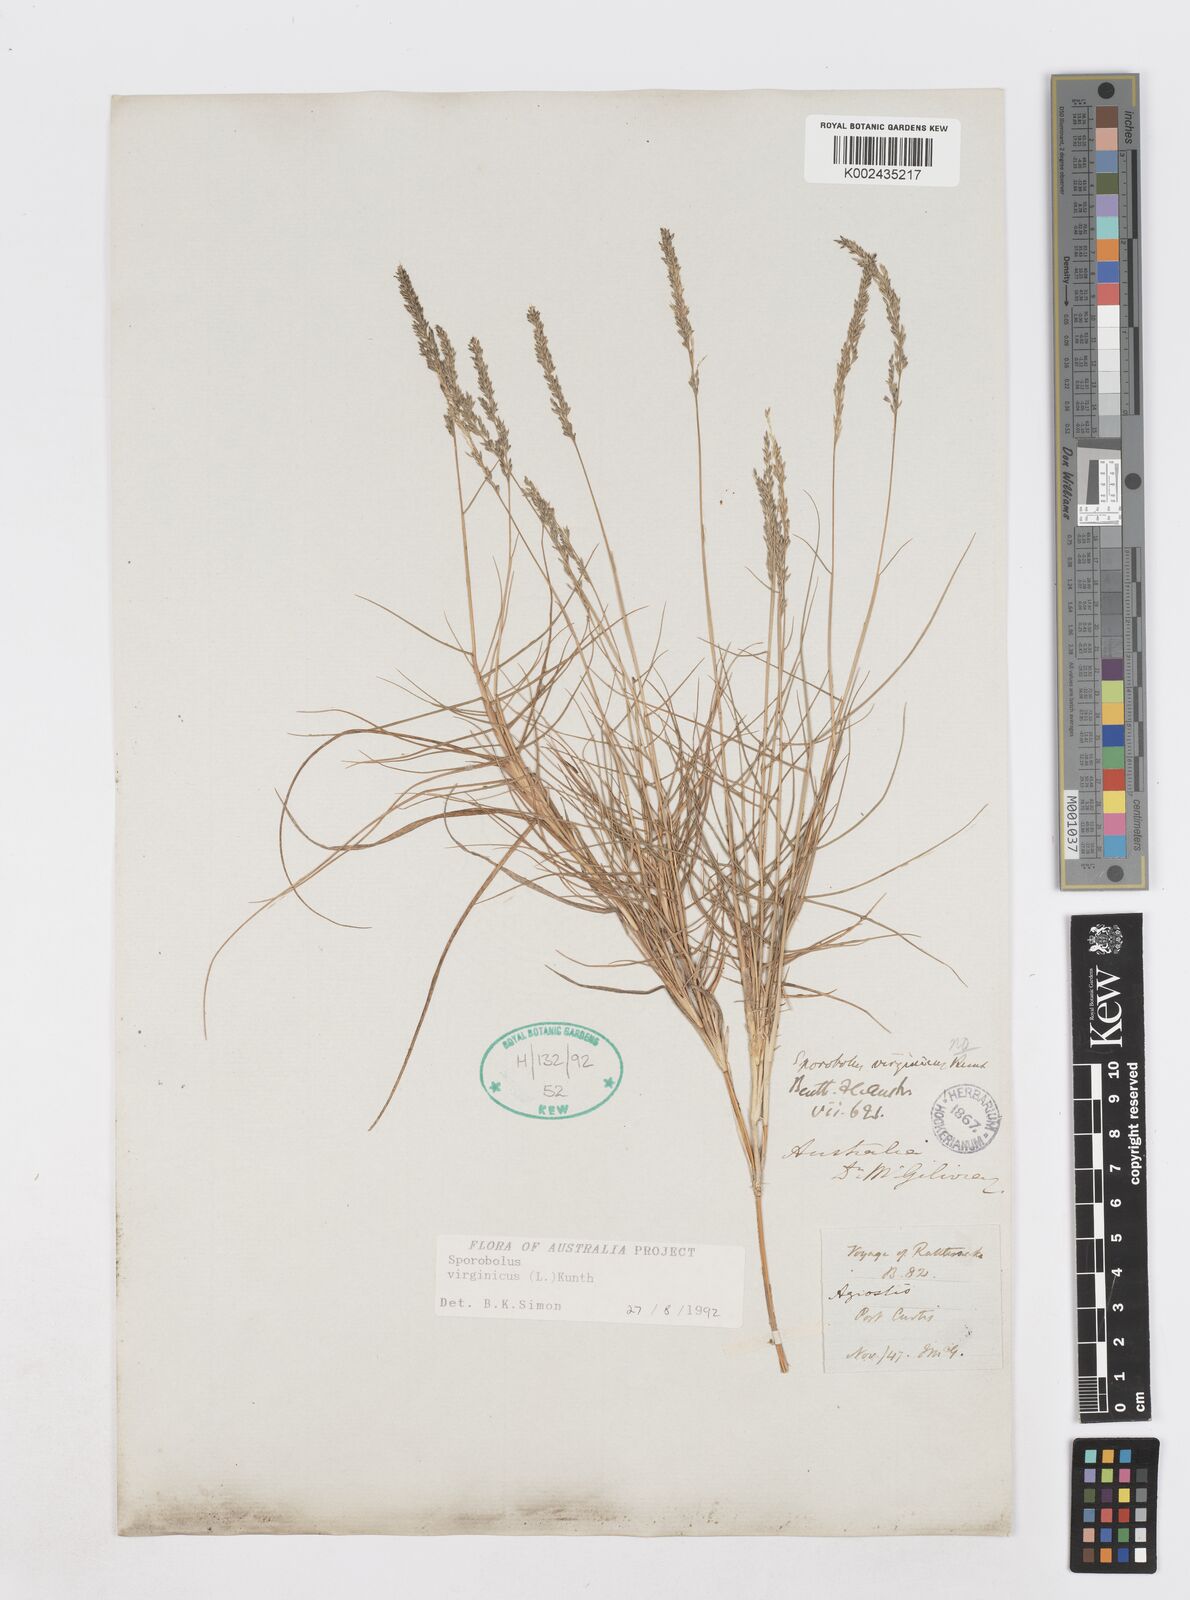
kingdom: Plantae
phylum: Tracheophyta
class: Liliopsida
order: Poales
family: Poaceae
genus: Sporobolus
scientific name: Sporobolus virginicus
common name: Beach dropseed
